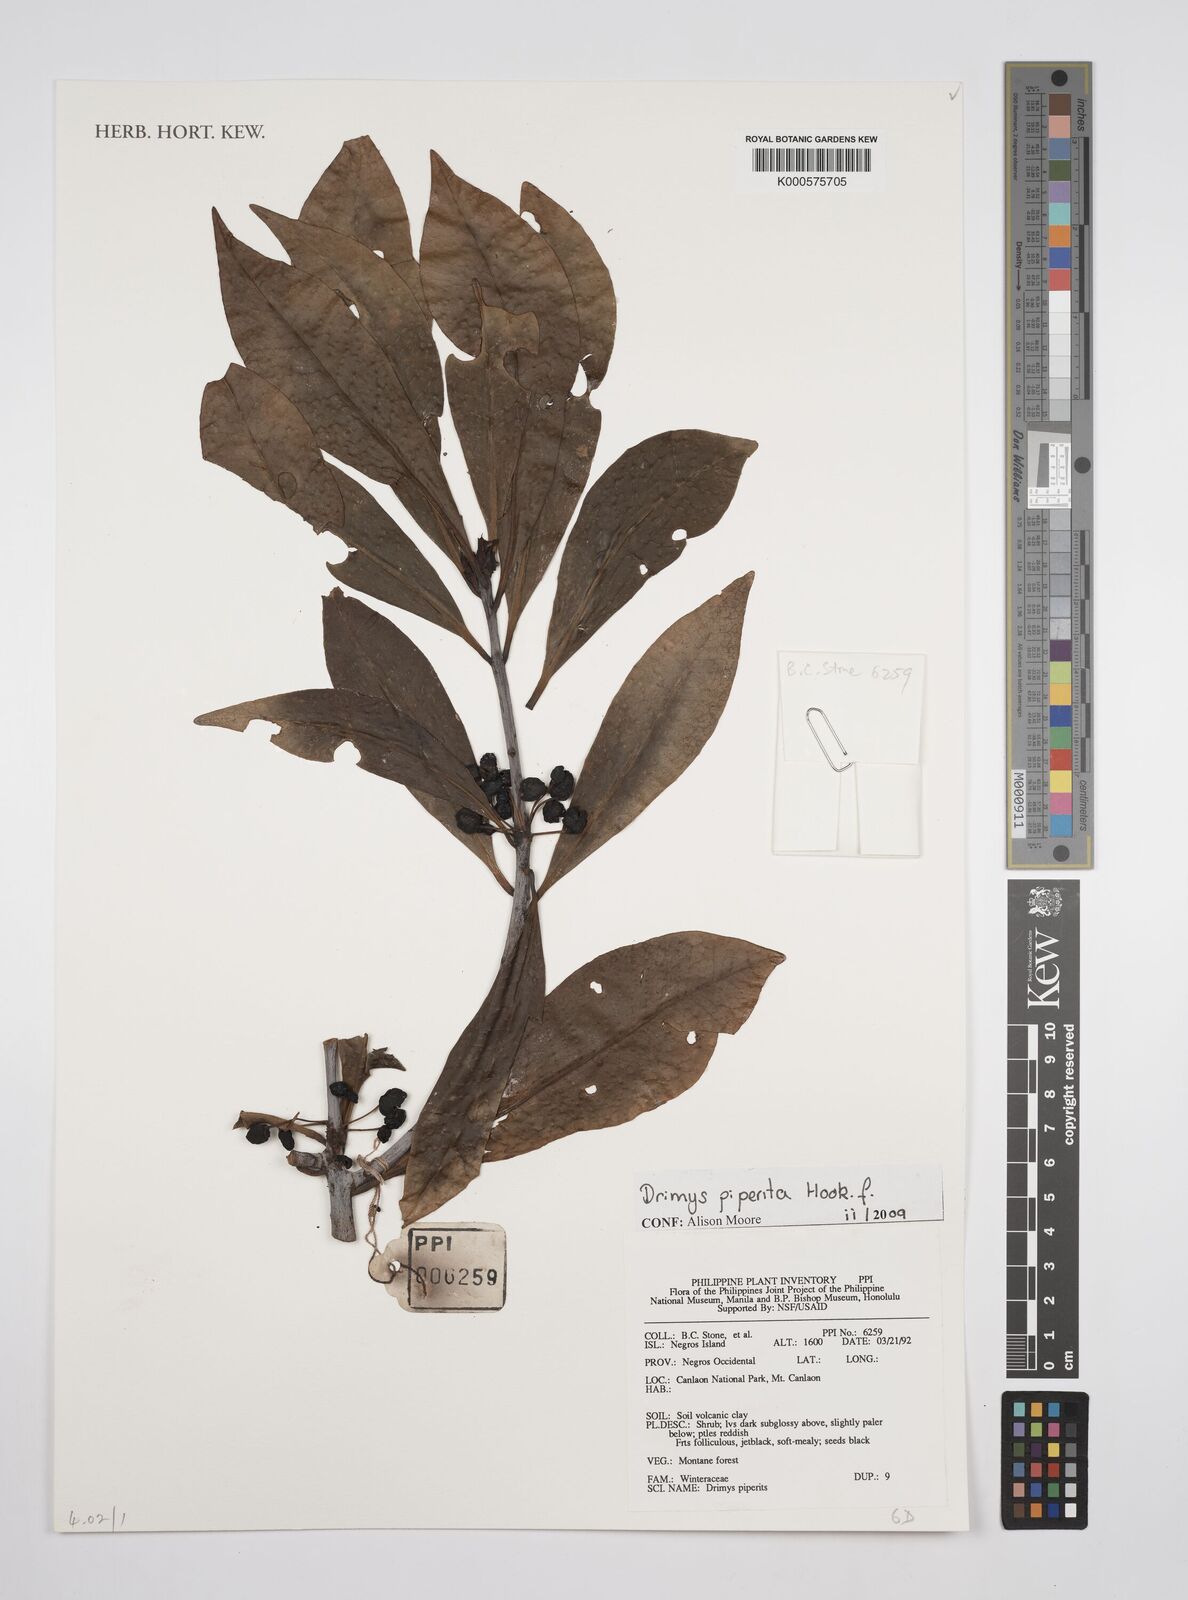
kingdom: Plantae
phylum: Tracheophyta
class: Magnoliopsida
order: Canellales
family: Winteraceae
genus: Drimys
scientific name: Drimys piperita
